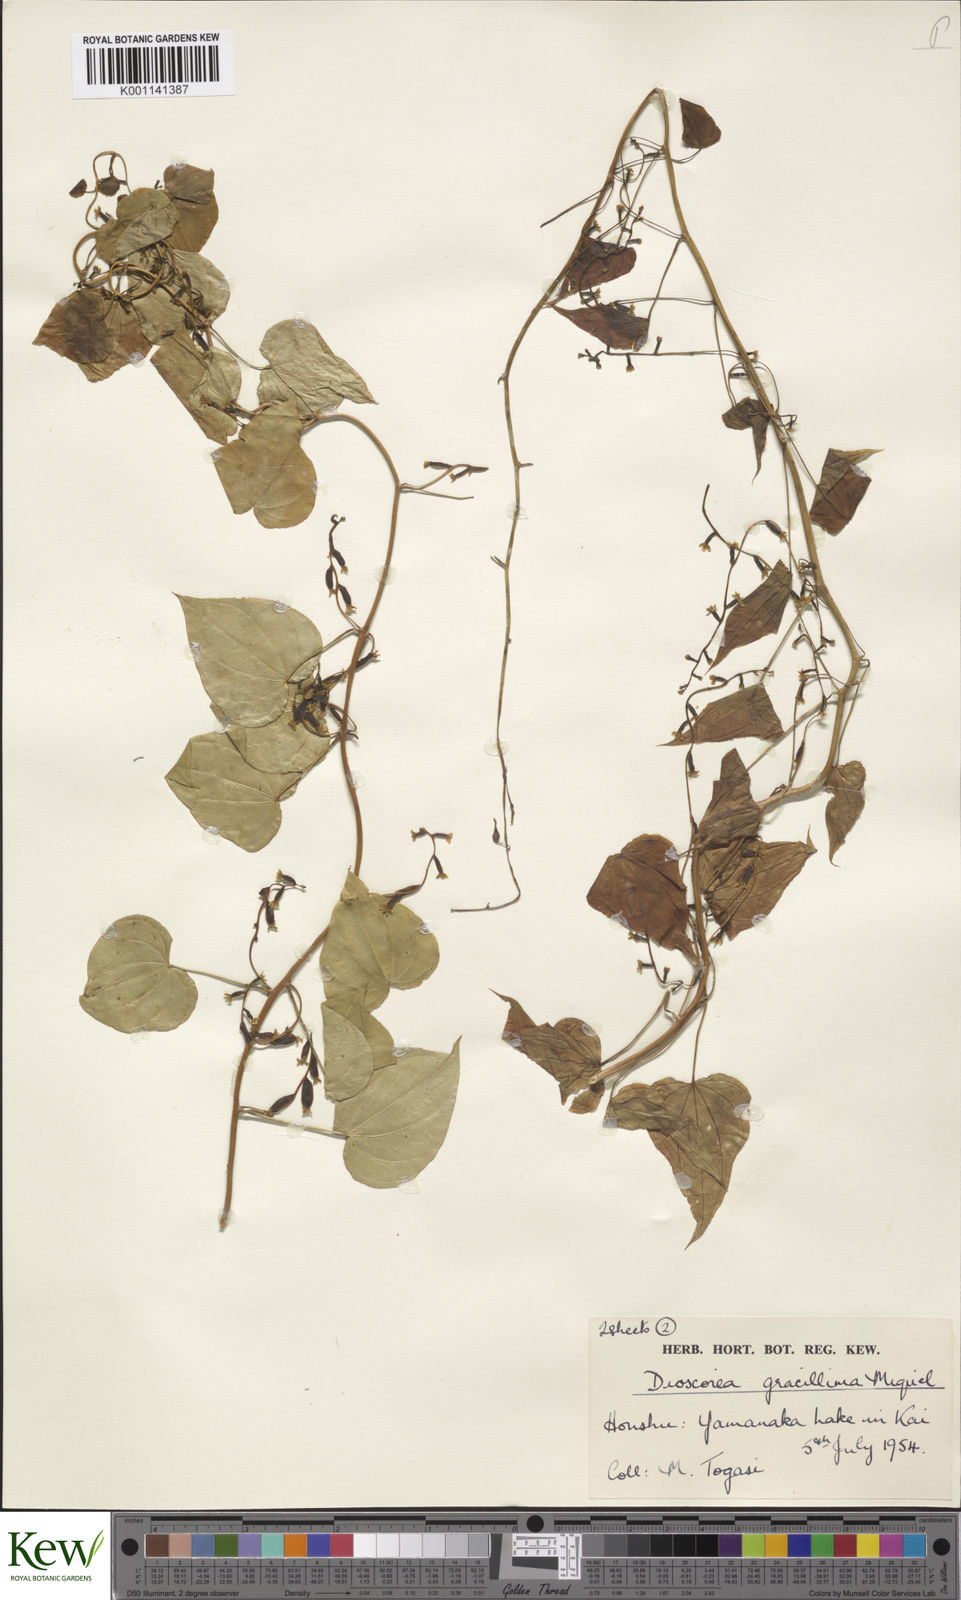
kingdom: Plantae
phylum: Tracheophyta
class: Liliopsida
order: Dioscoreales
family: Dioscoreaceae
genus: Dioscorea
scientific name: Dioscorea gracillima
